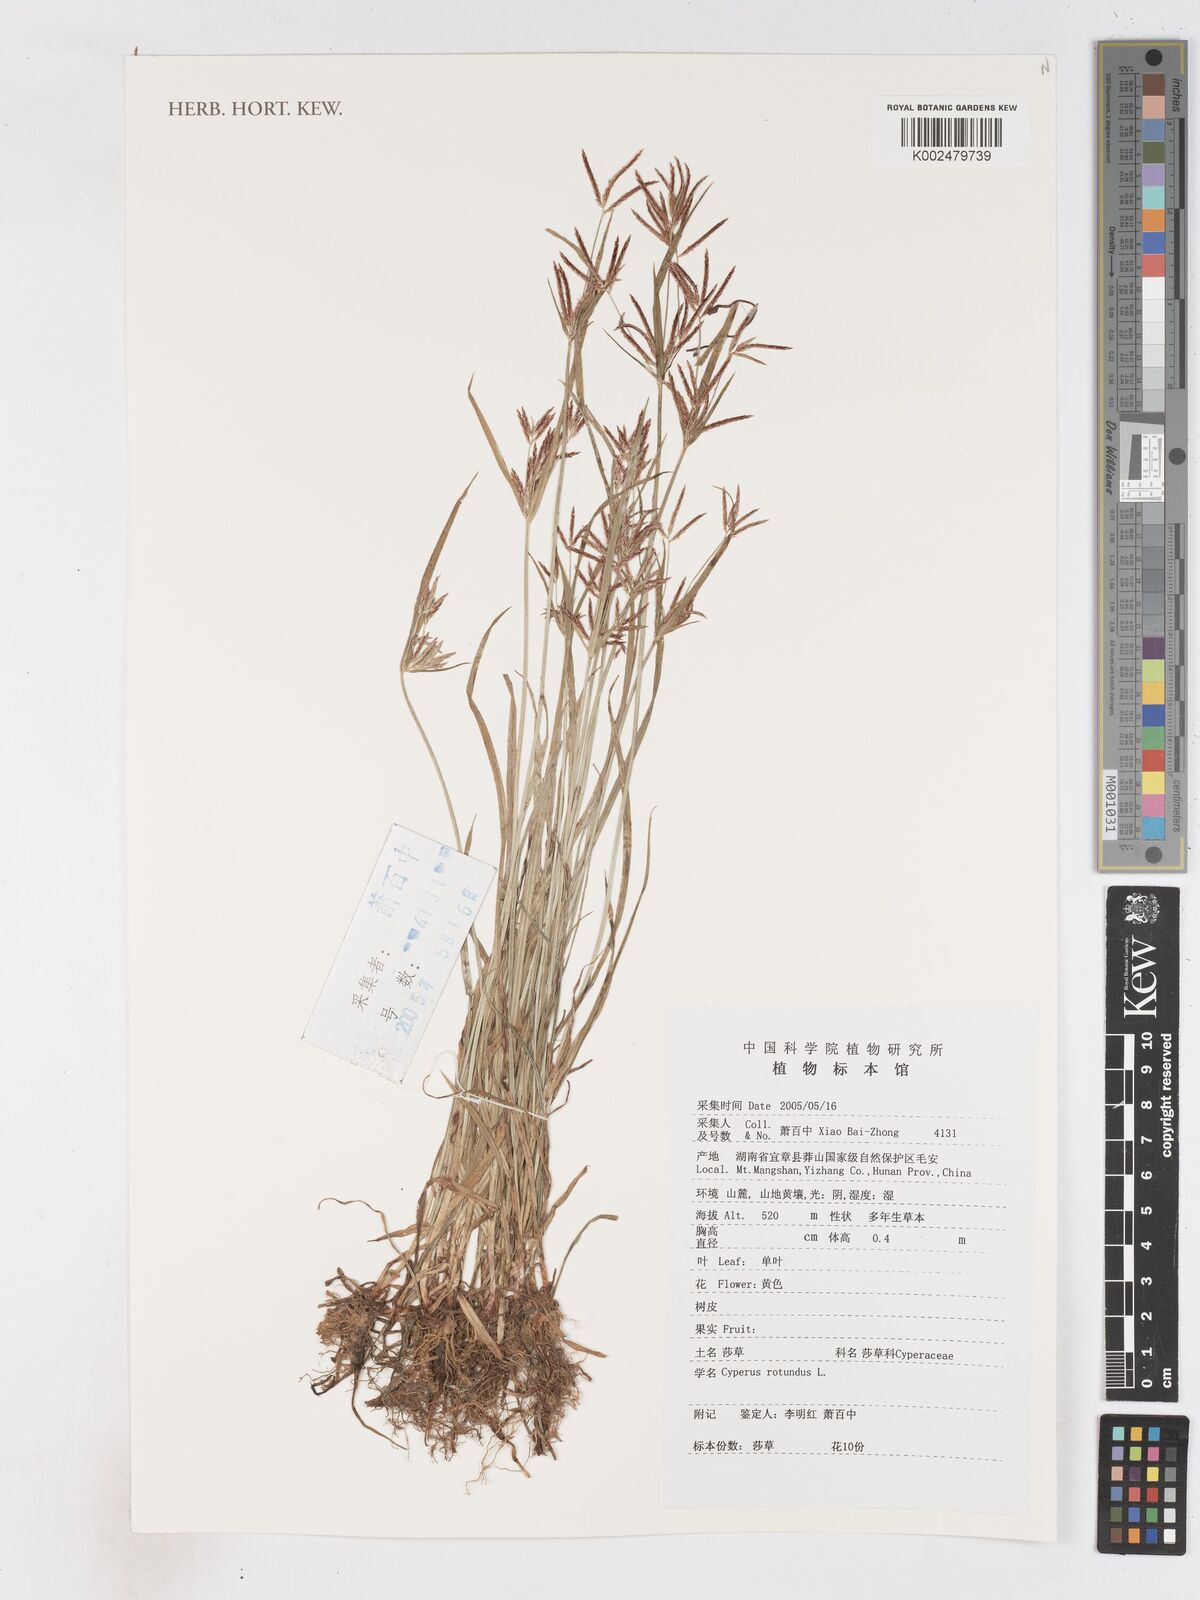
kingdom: Plantae
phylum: Tracheophyta
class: Liliopsida
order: Poales
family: Cyperaceae
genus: Cyperus
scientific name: Cyperus rotundus
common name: Nutgrass
